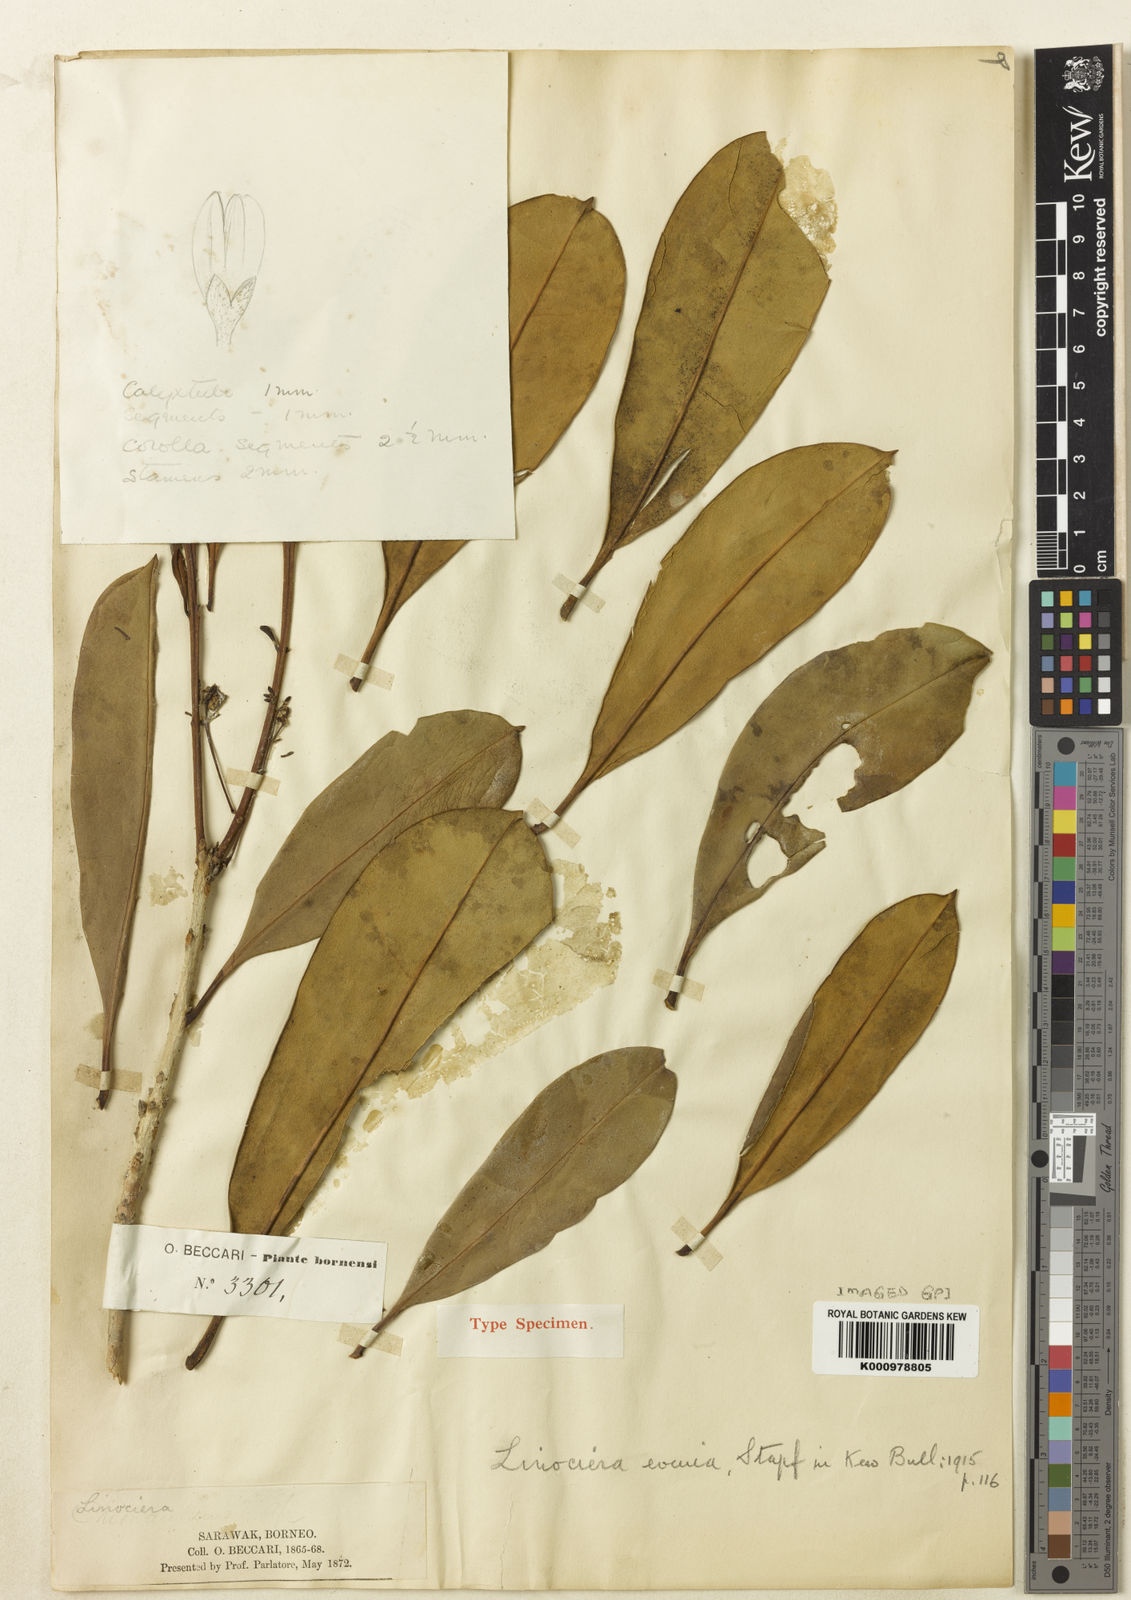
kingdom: Plantae
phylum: Tracheophyta
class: Magnoliopsida
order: Lamiales
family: Oleaceae
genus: Chionanthus
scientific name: Chionanthus evenius
